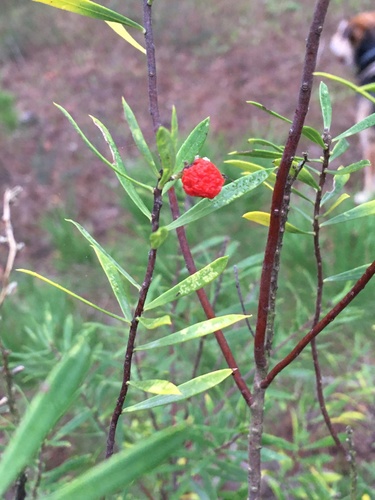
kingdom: Plantae
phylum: Tracheophyta
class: Magnoliopsida
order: Malvales
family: Thymelaeaceae
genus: Daphne
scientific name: Daphne gnidium
